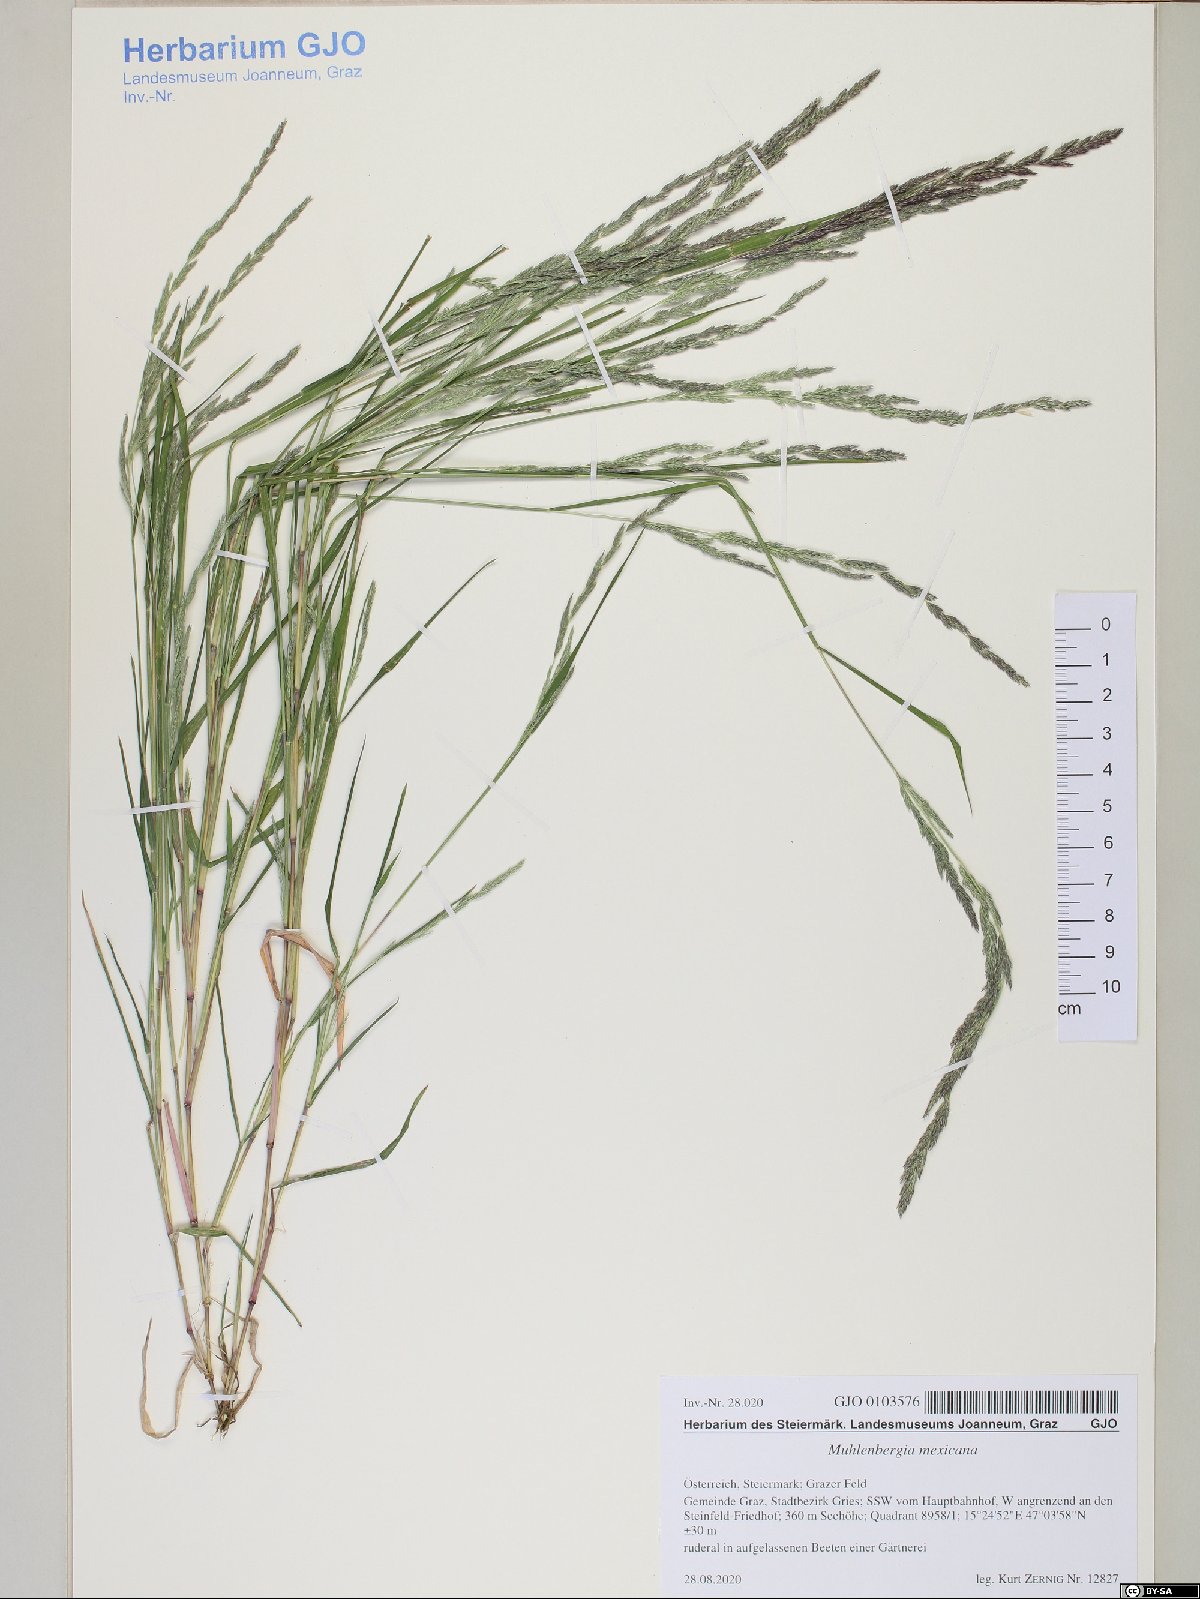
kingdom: Plantae
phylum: Tracheophyta
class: Liliopsida
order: Poales
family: Poaceae
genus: Muhlenbergia
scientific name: Muhlenbergia mexicana
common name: Mexican muhly
